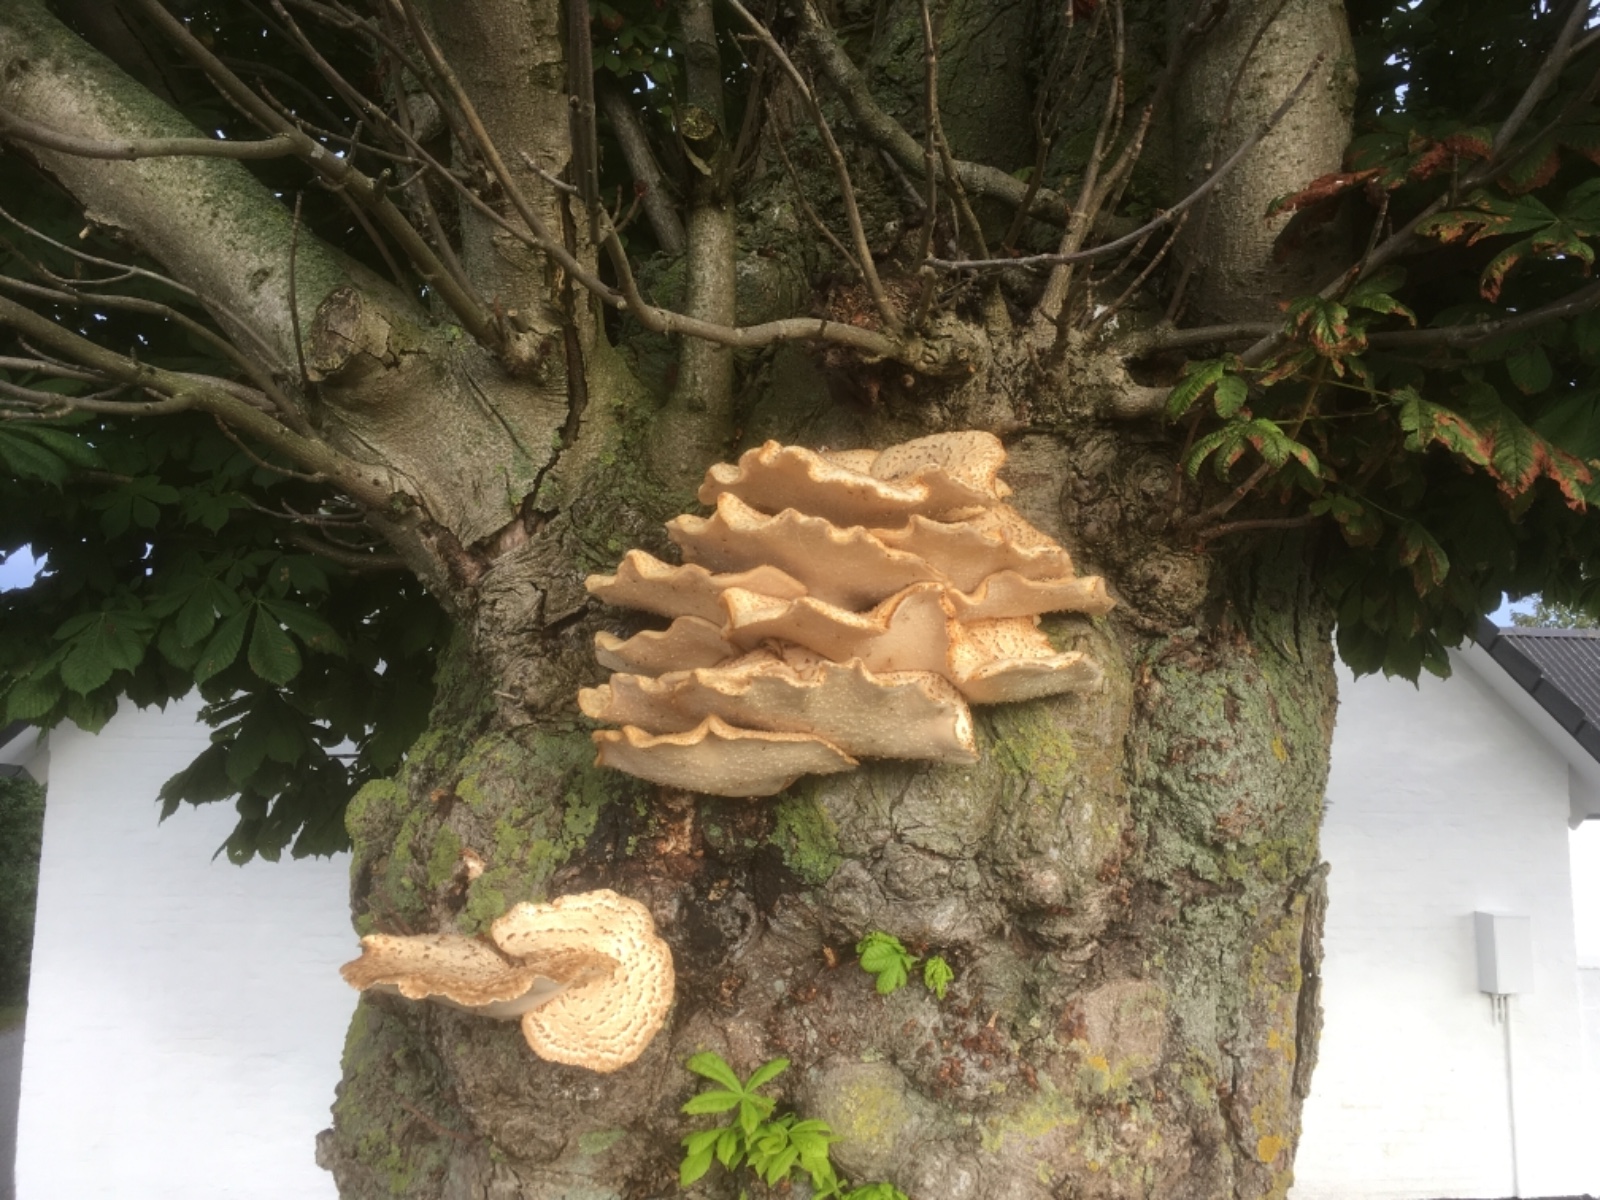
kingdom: Fungi
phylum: Basidiomycota
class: Agaricomycetes
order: Polyporales
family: Polyporaceae
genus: Cerioporus
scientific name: Cerioporus squamosus
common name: skællet stilkporesvamp
